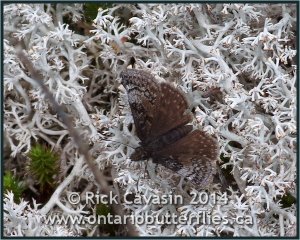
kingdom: Animalia
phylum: Arthropoda
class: Insecta
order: Lepidoptera
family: Hesperiidae
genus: Erynnis
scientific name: Erynnis icelus
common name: Dreamy Duskywing
